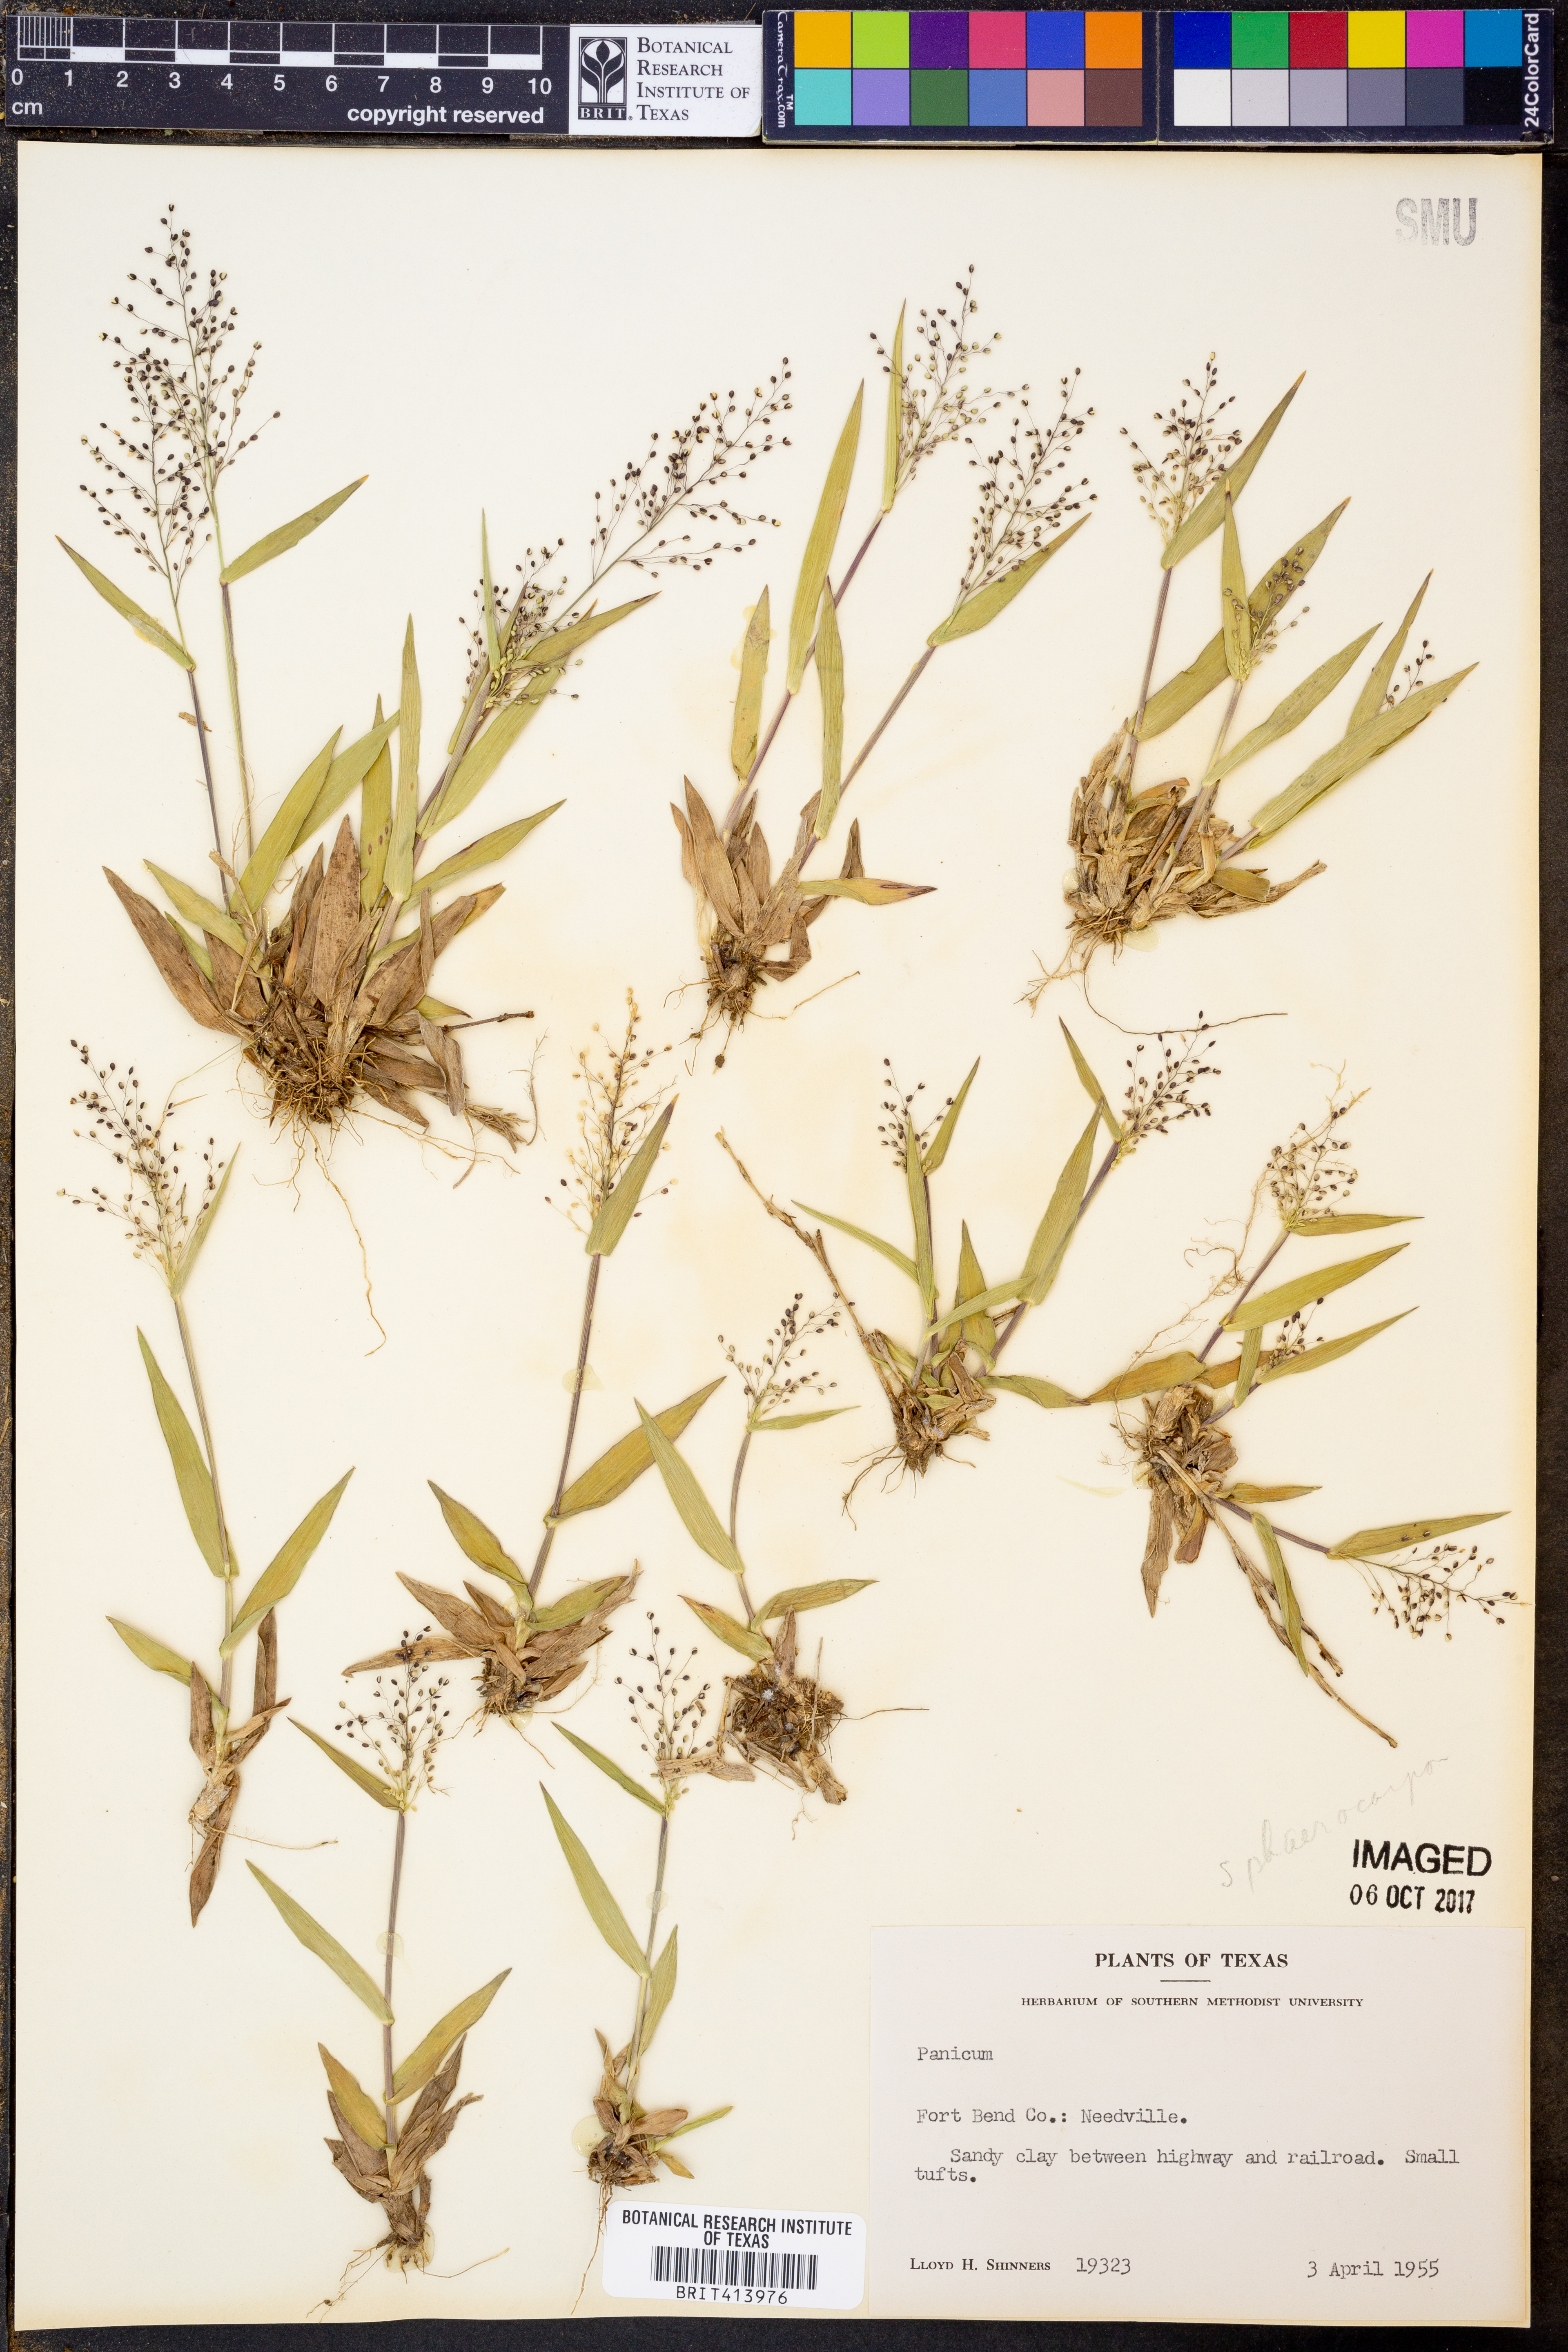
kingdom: Plantae
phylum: Tracheophyta
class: Liliopsida
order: Poales
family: Poaceae
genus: Panicum
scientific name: Panicum
